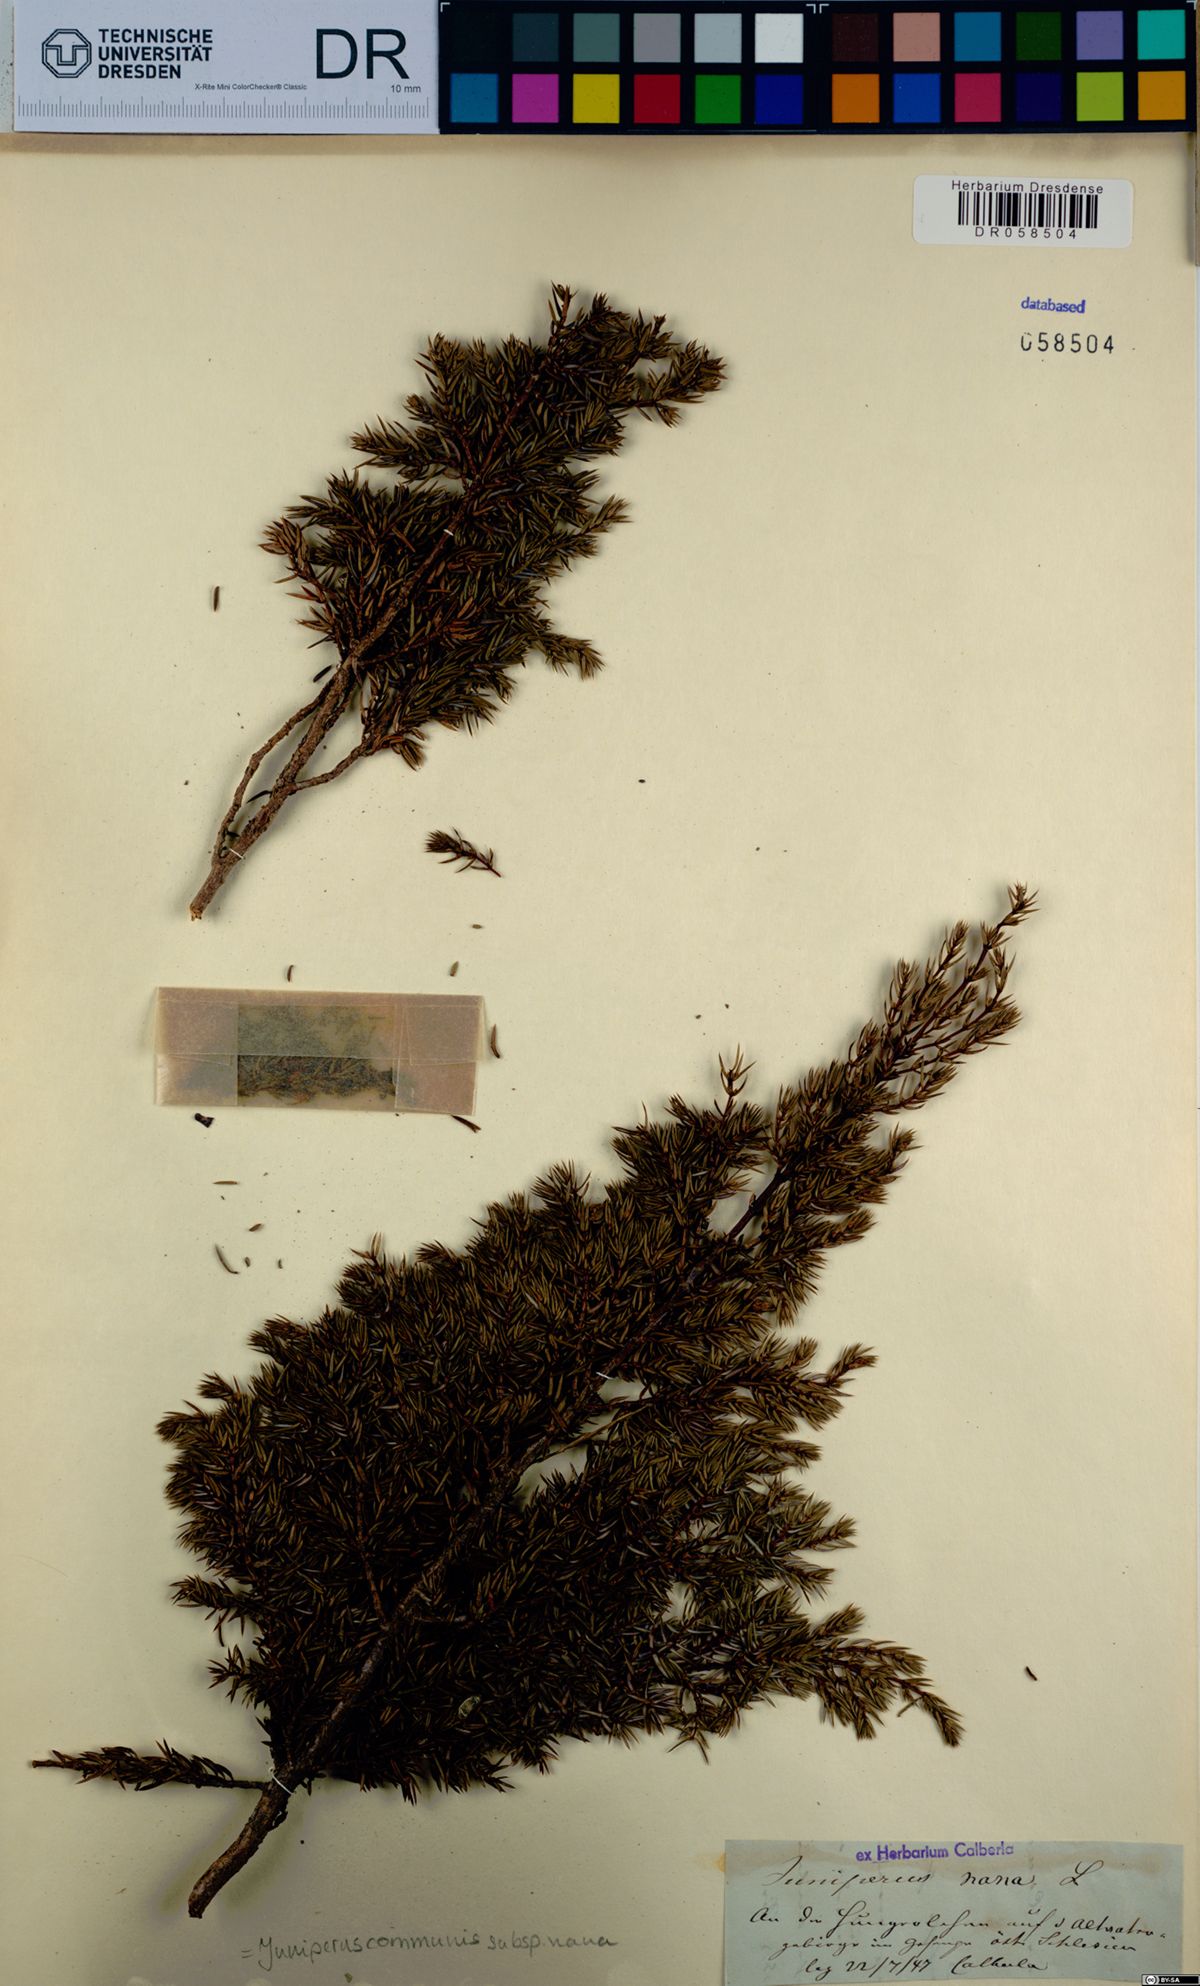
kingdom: Plantae
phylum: Tracheophyta
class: Pinopsida
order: Pinales
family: Cupressaceae
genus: Juniperus
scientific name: Juniperus communis
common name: Common juniper
